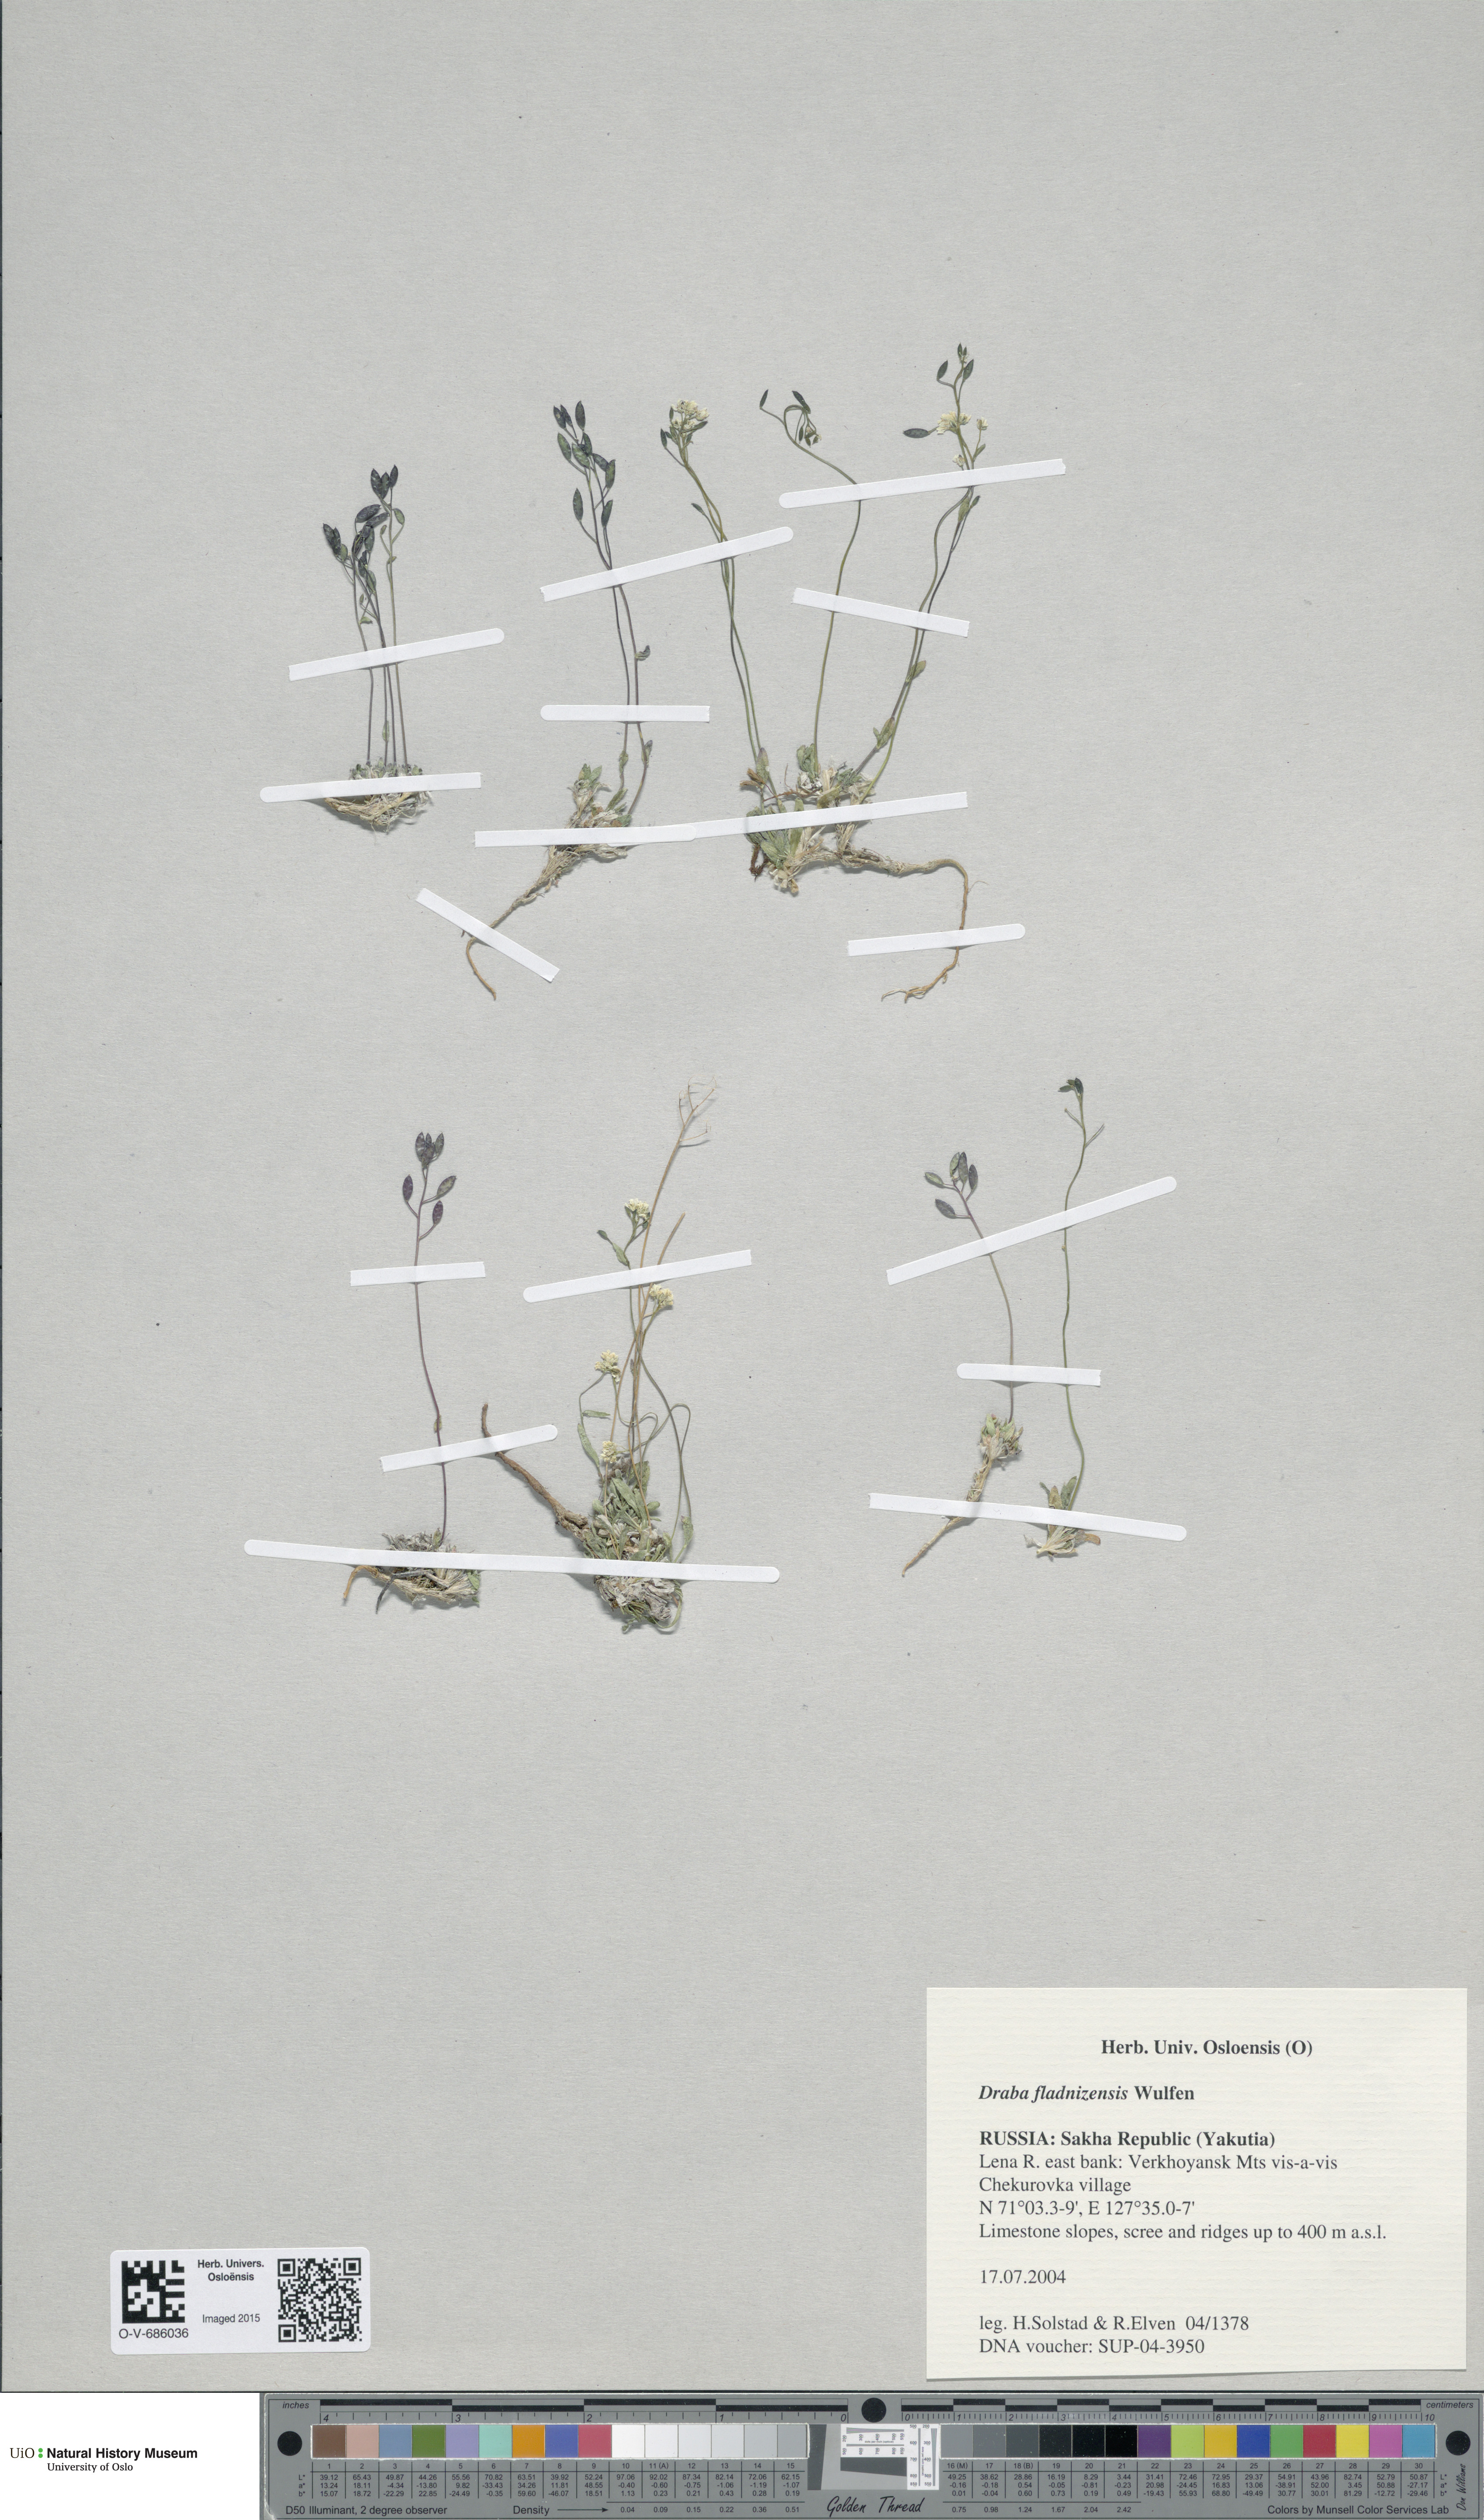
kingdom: Plantae
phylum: Tracheophyta
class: Magnoliopsida
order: Brassicales
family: Brassicaceae
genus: Draba
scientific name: Draba fladnizensis
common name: Austrian draba
